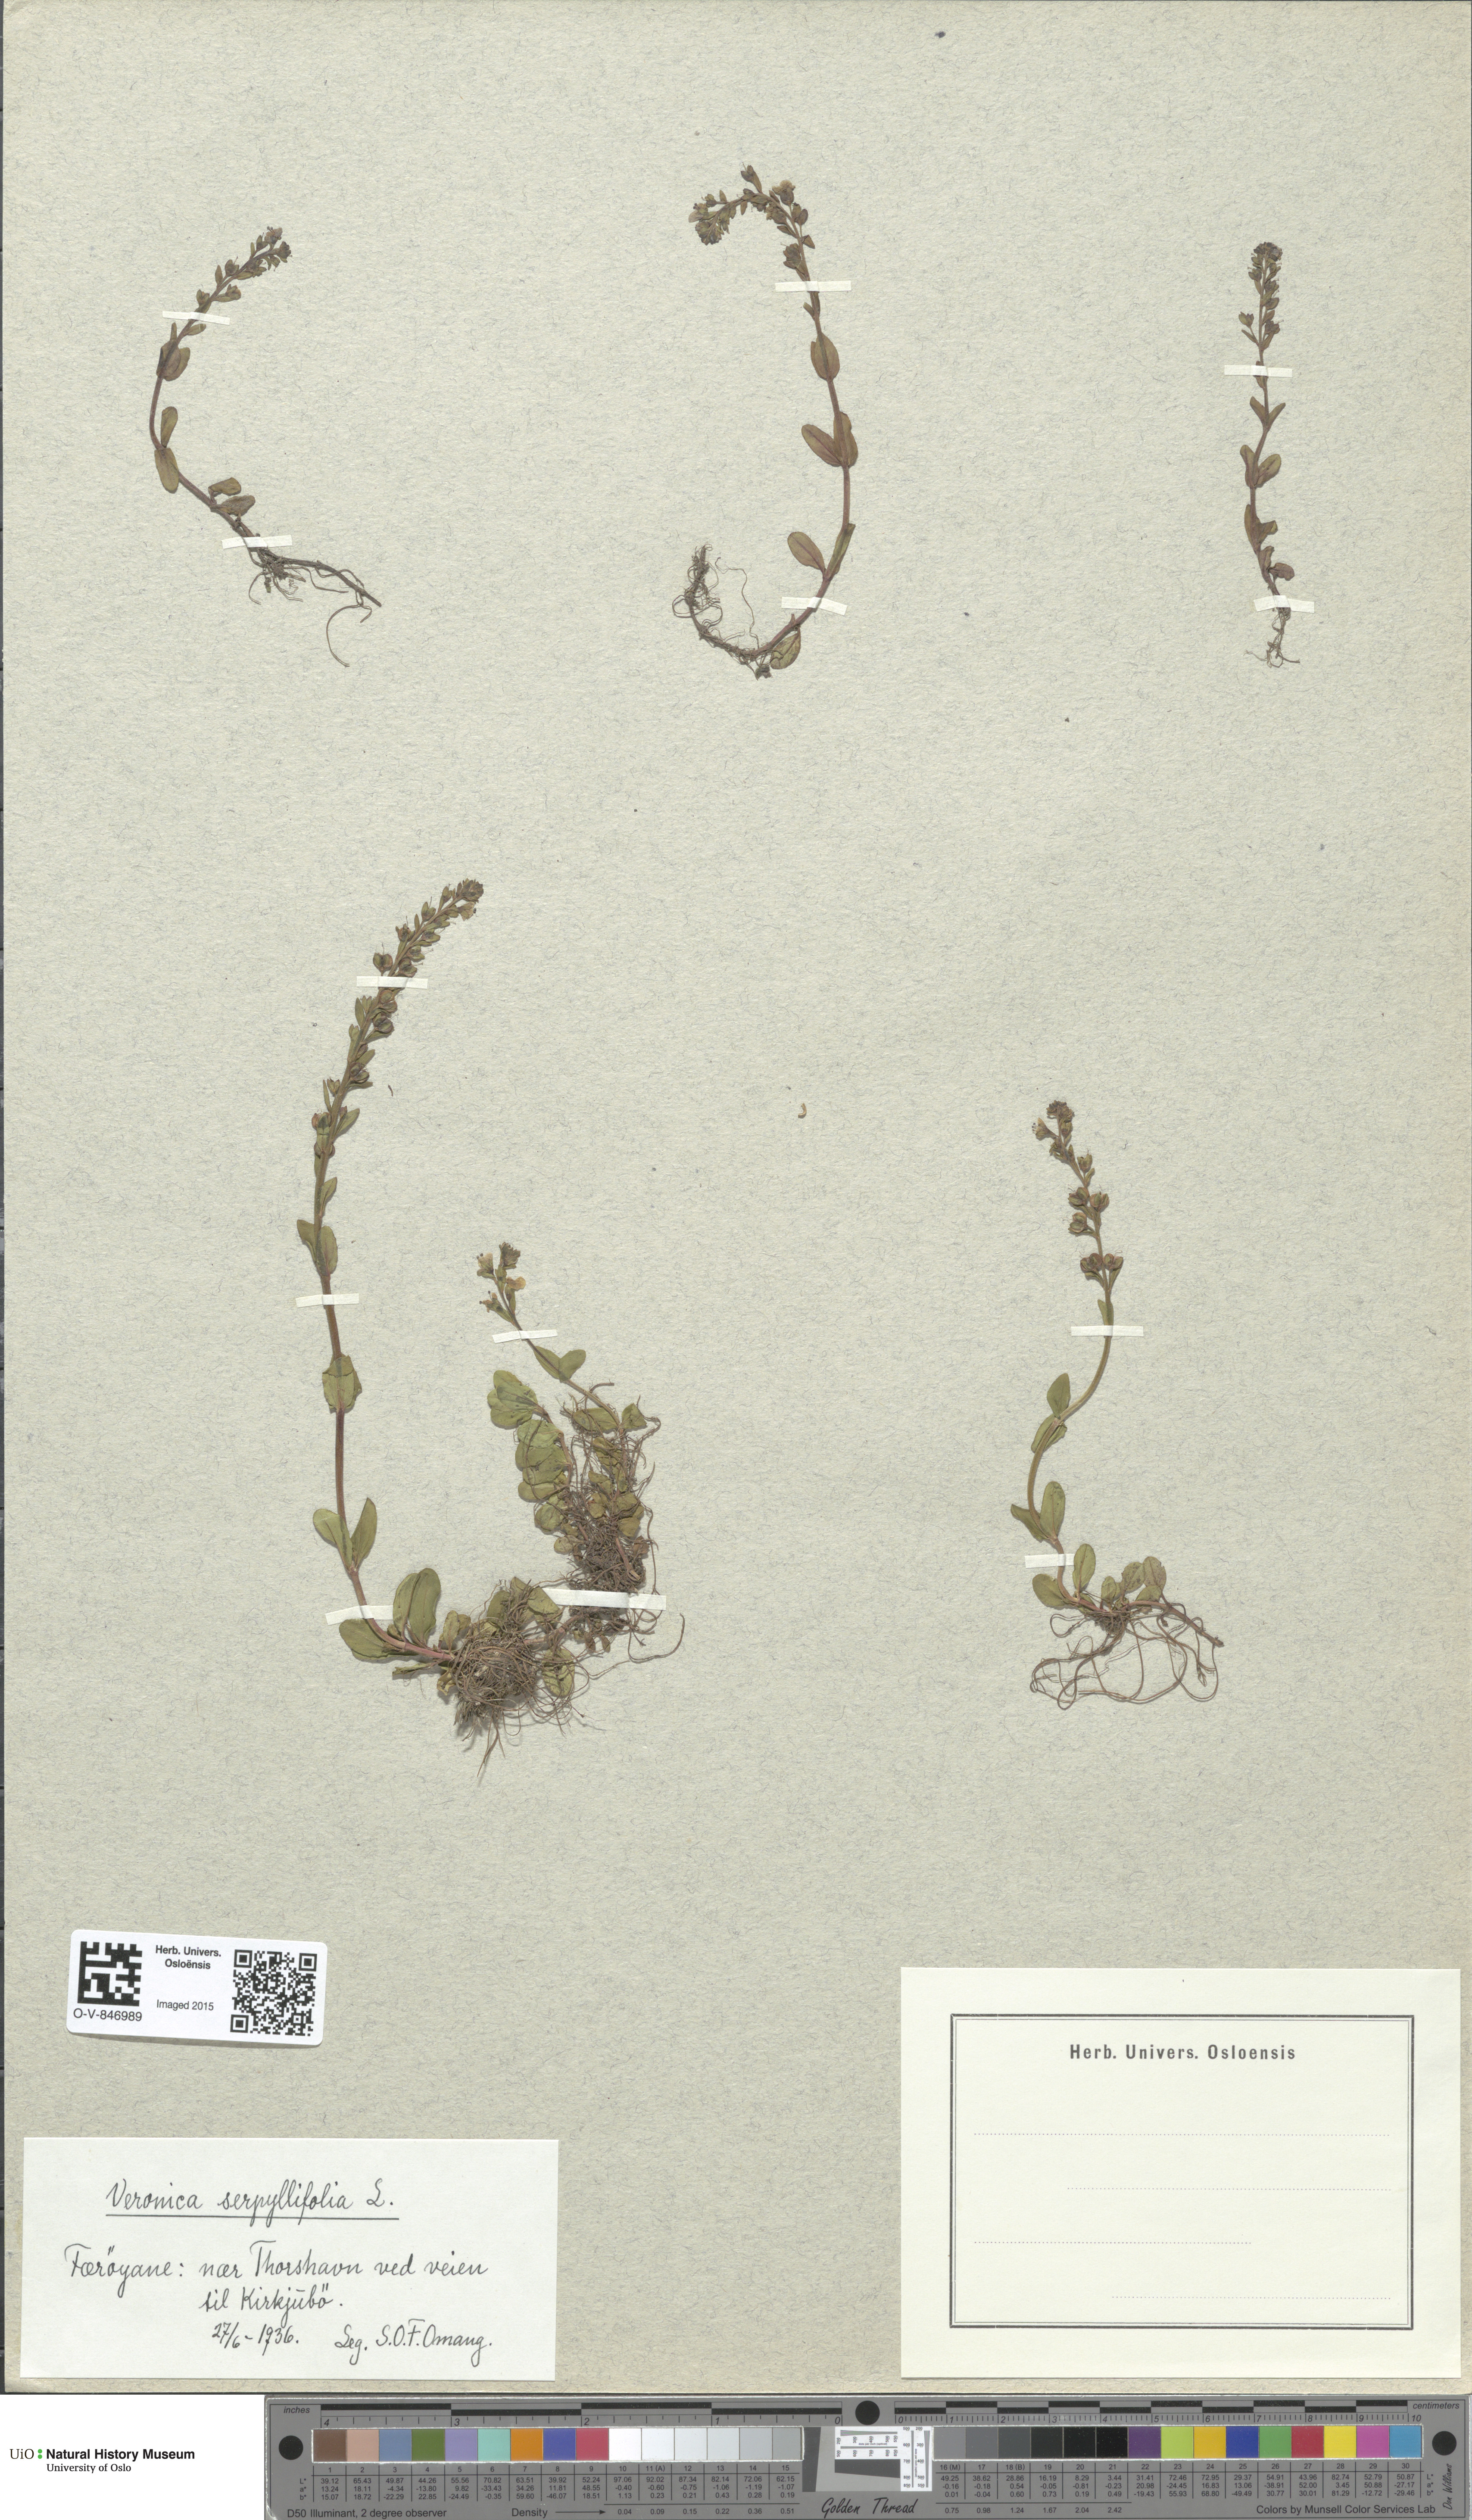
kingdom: Plantae
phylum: Tracheophyta
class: Magnoliopsida
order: Lamiales
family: Plantaginaceae
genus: Veronica
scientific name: Veronica serpyllifolia
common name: Thyme-leaved speedwell
